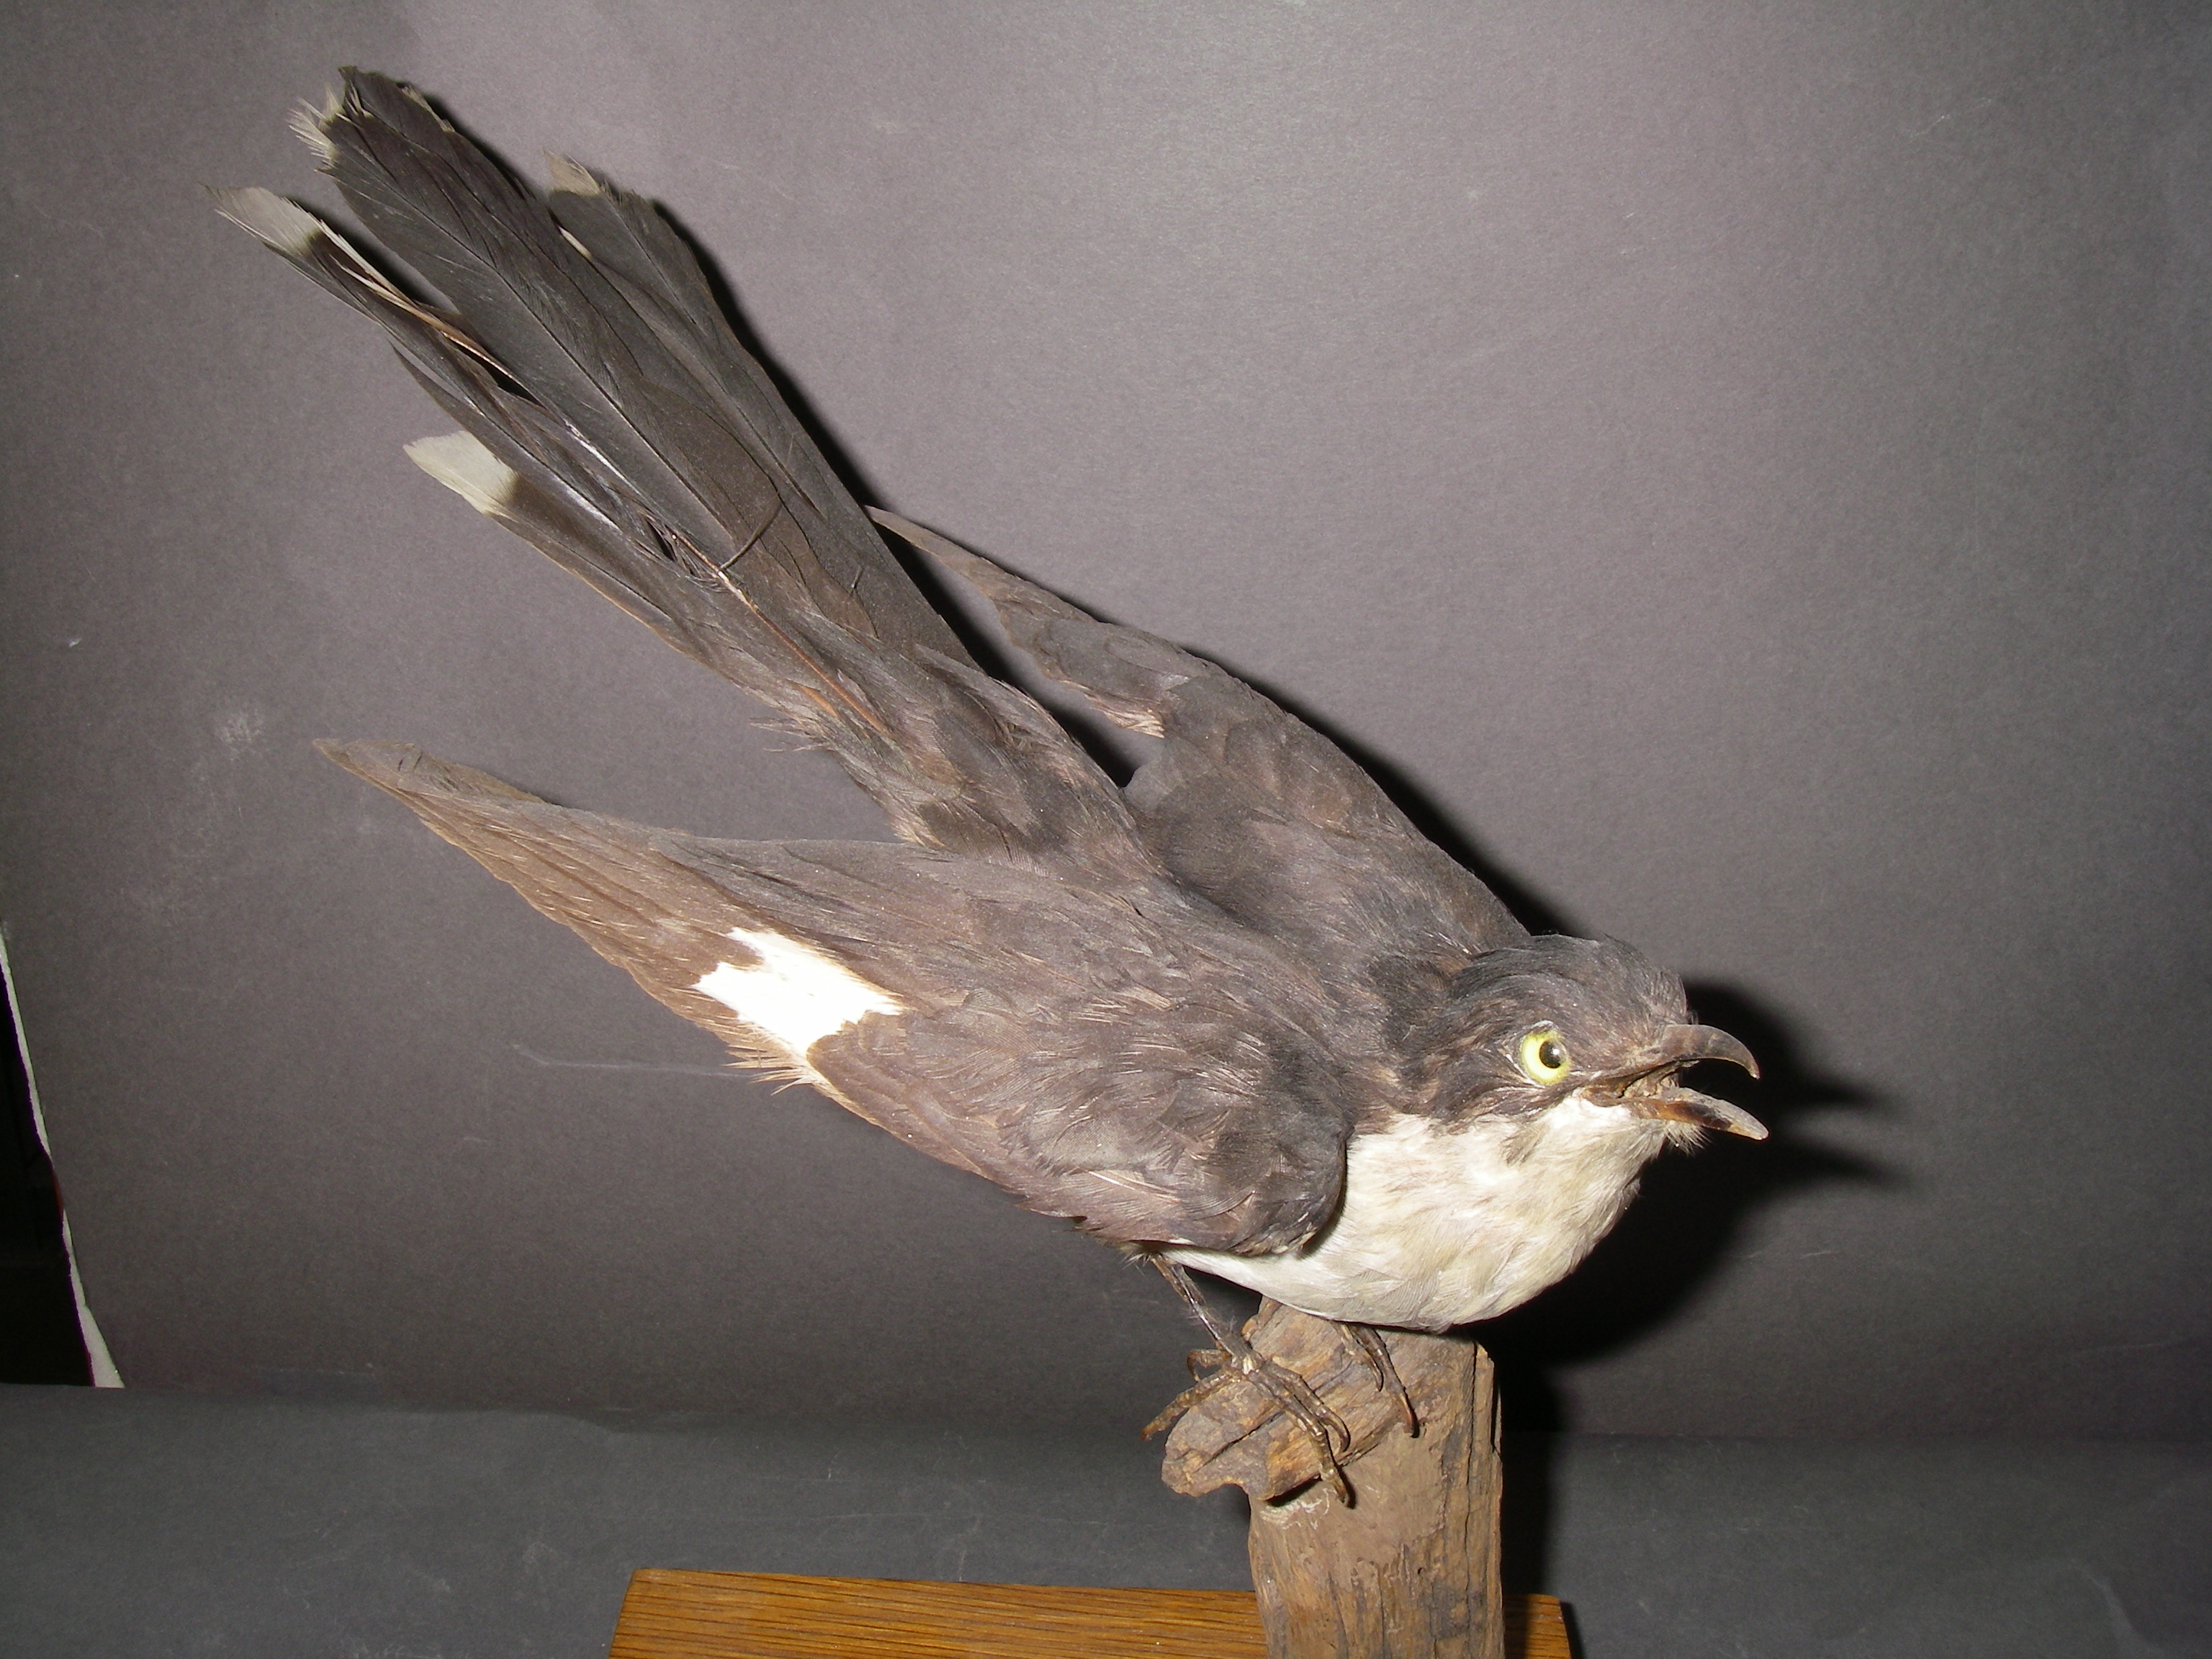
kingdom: Animalia
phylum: Chordata
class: Aves
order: Cuculiformes
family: Cuculidae
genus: Clamator
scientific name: Clamator jacobinus
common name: Jacobin cuckoo
